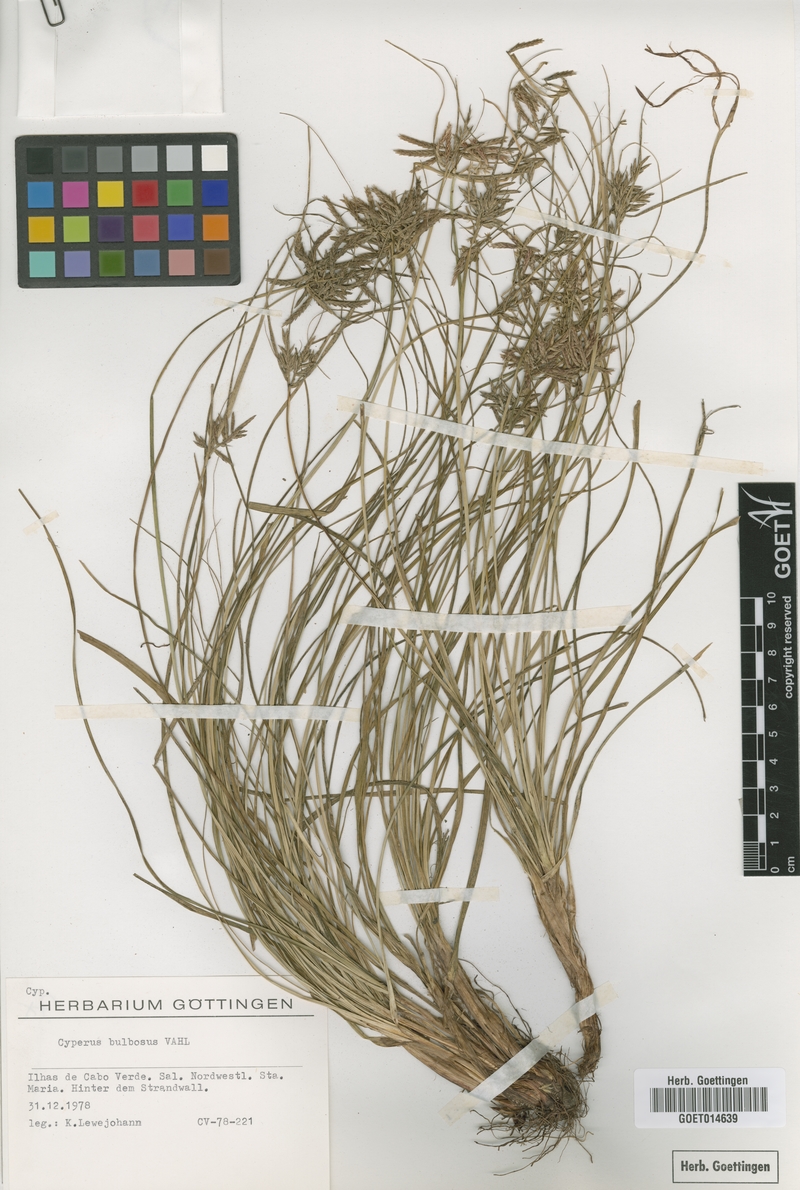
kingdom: Plantae
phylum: Tracheophyta
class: Liliopsida
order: Poales
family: Cyperaceae
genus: Cyperus
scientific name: Cyperus bulbosus
